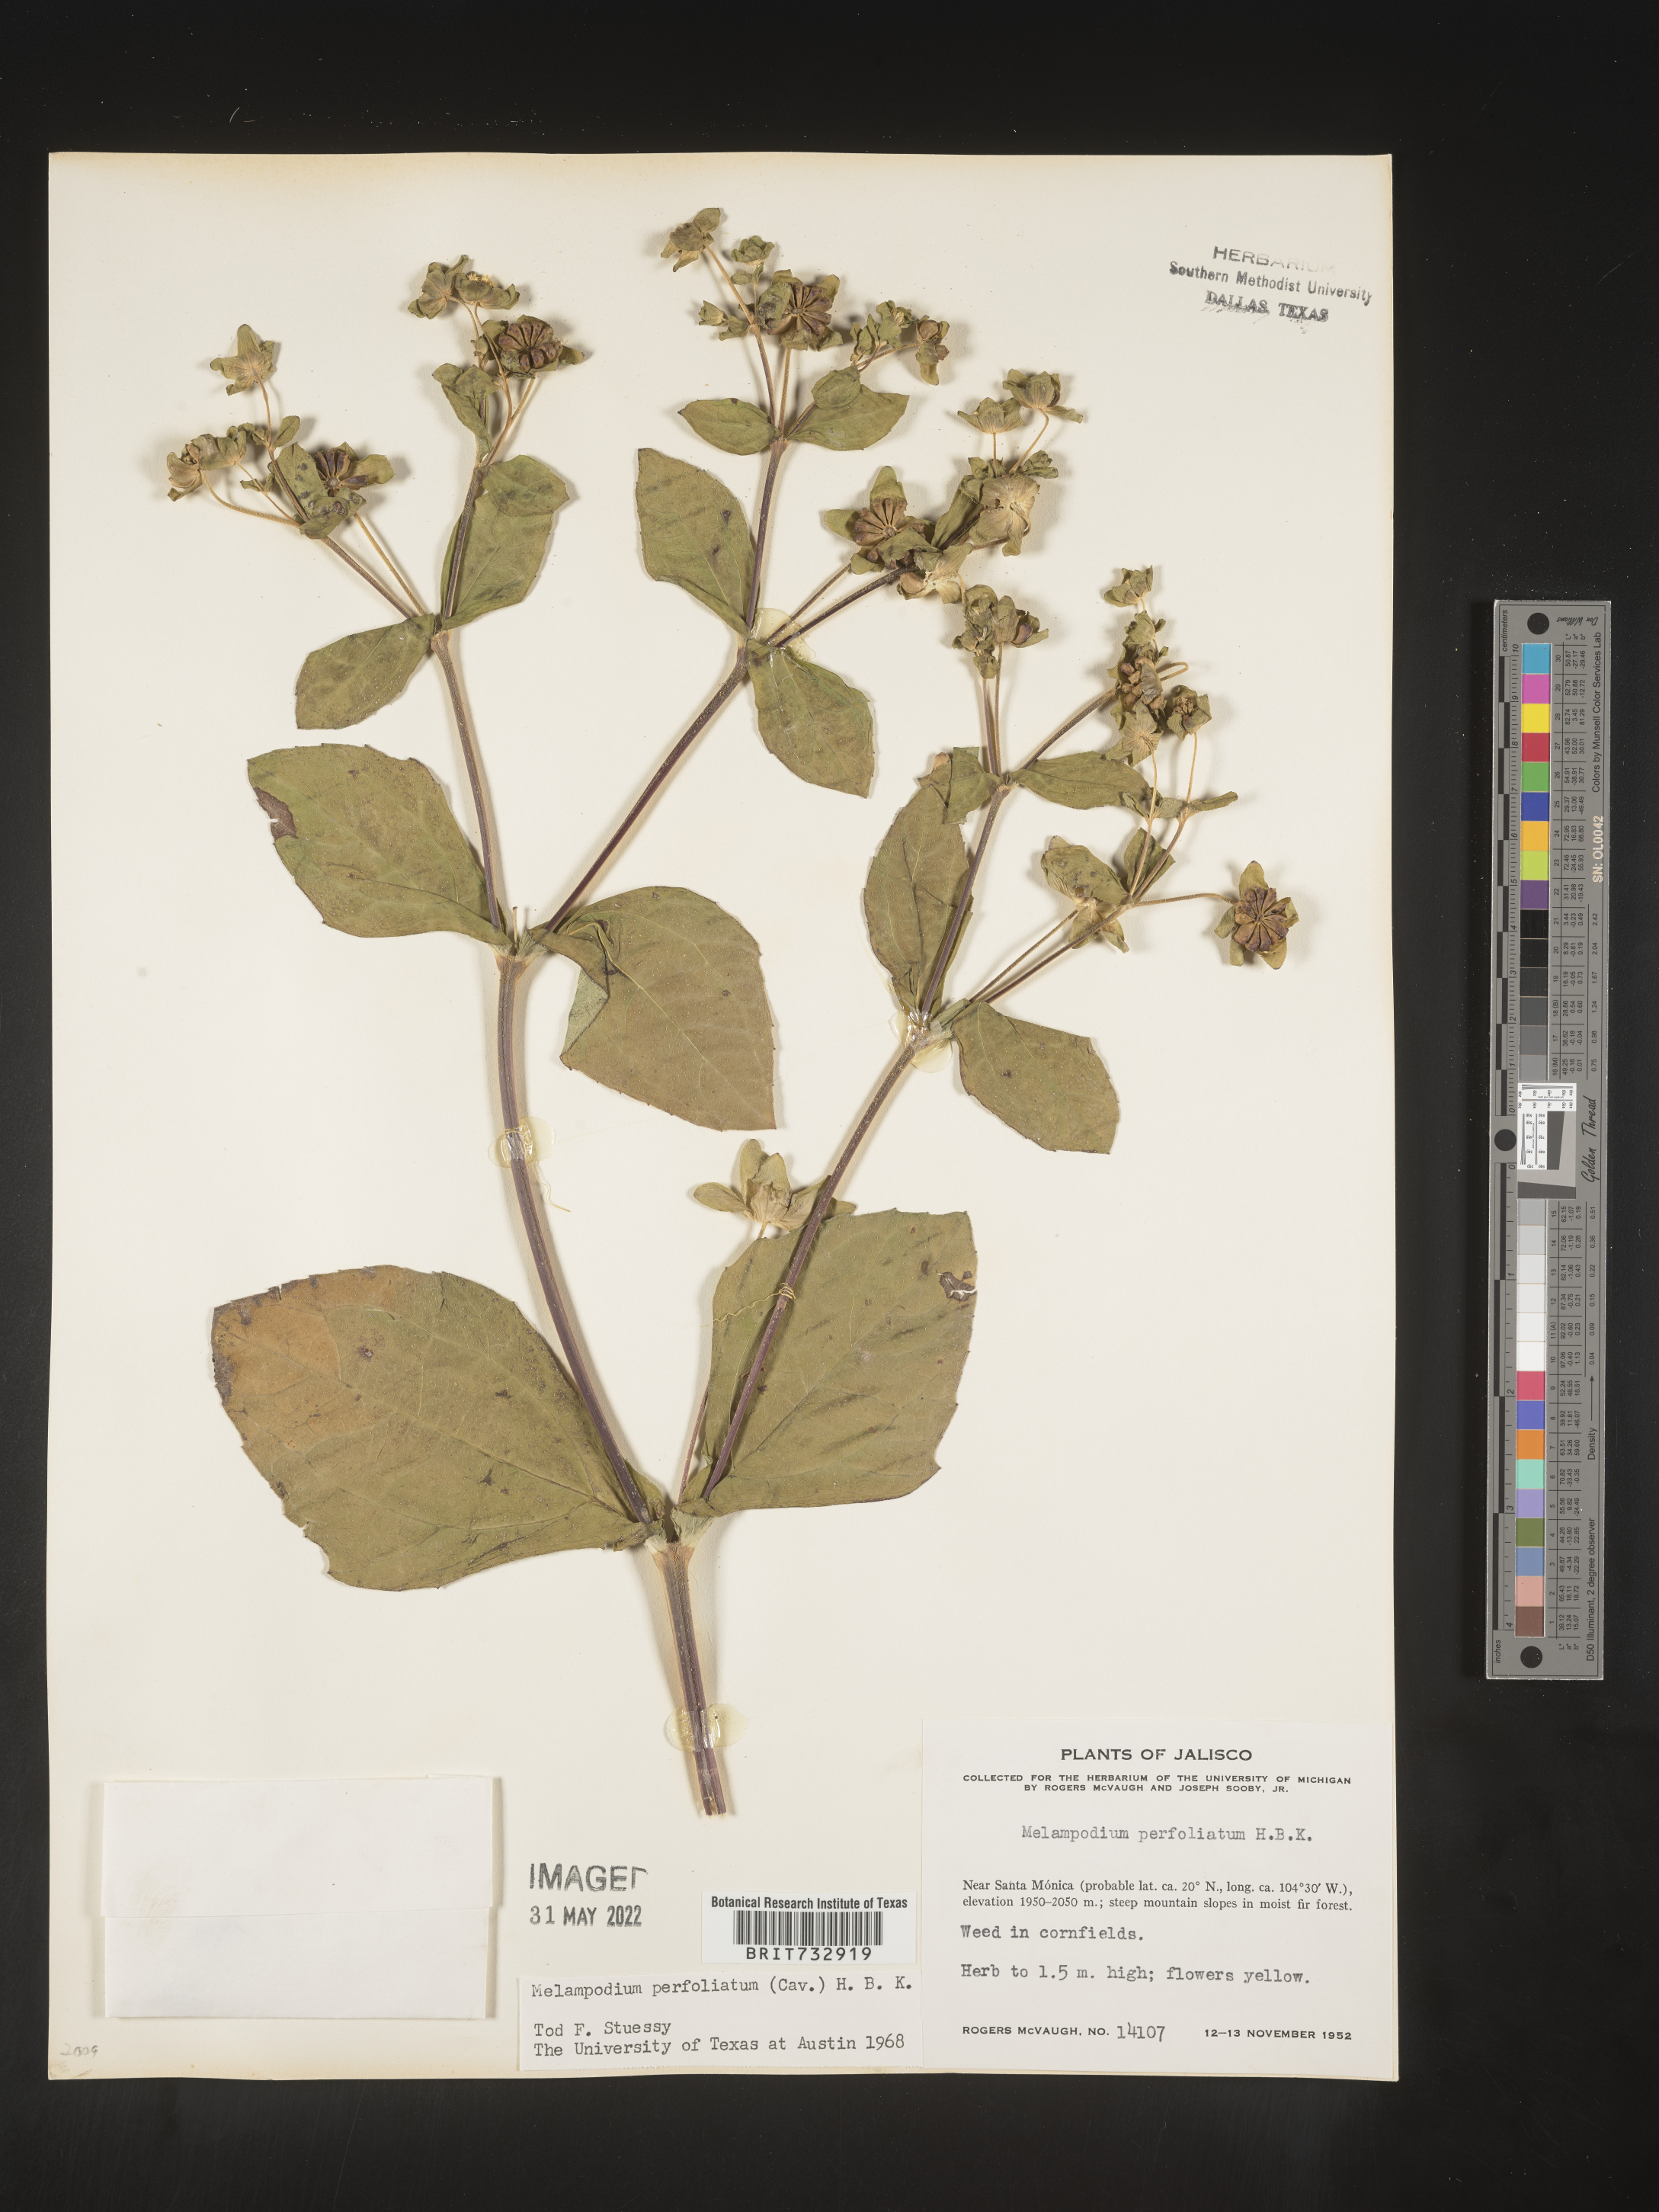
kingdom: Plantae
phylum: Tracheophyta
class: Magnoliopsida
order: Asterales
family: Asteraceae
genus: Melampodium
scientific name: Melampodium
